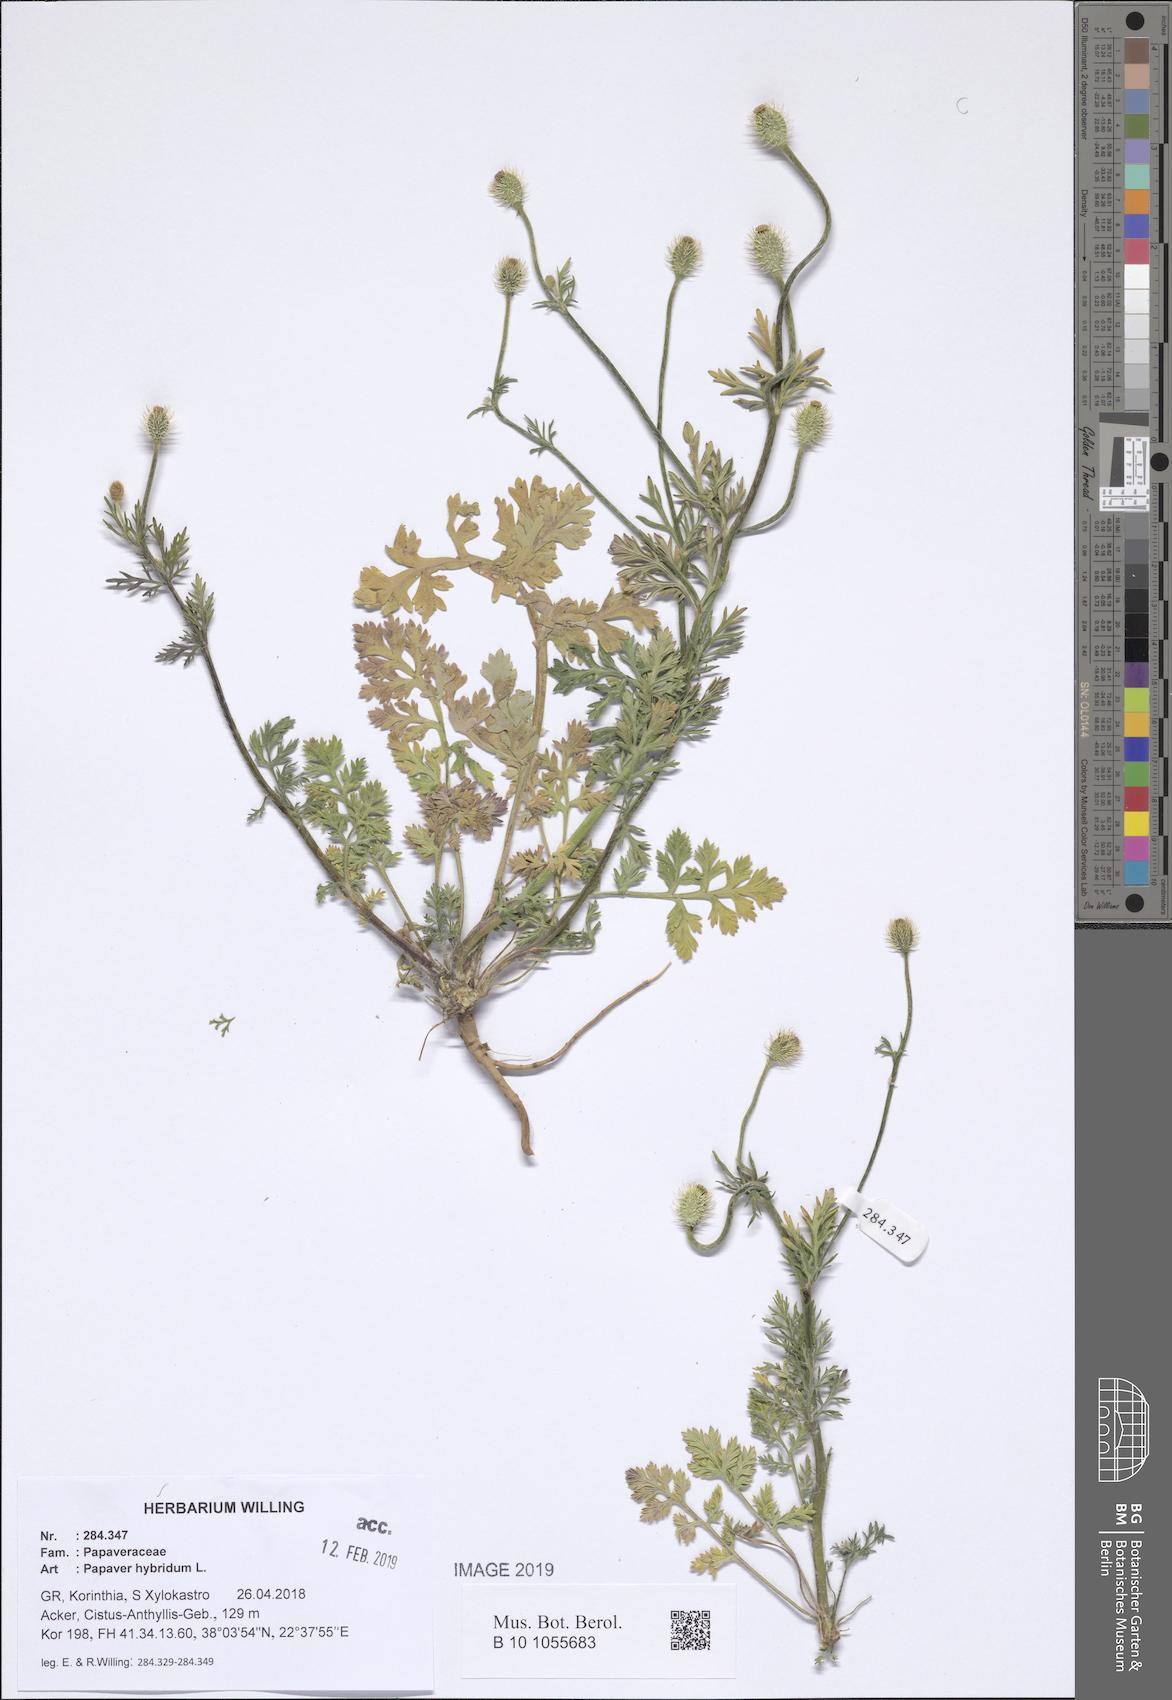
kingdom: Plantae
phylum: Tracheophyta
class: Magnoliopsida
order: Ranunculales
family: Papaveraceae
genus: Roemeria
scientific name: Roemeria hispida
